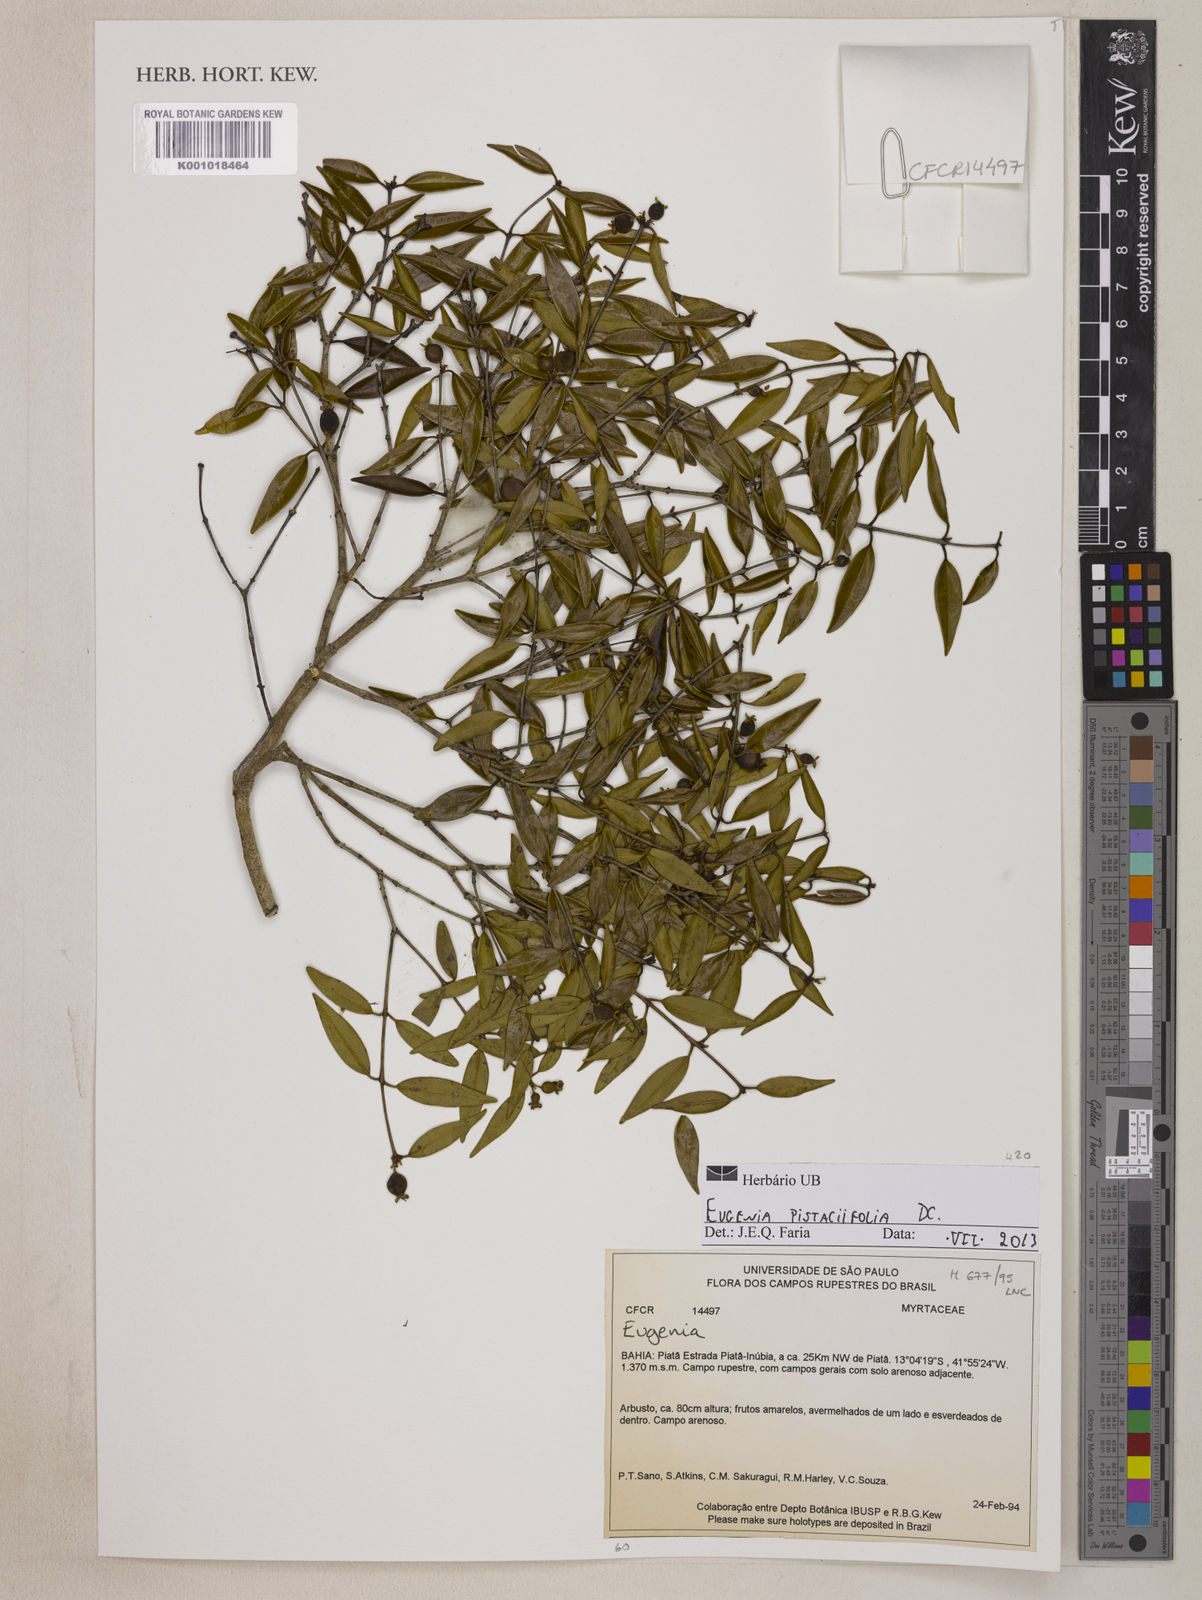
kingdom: Plantae
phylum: Tracheophyta
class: Magnoliopsida
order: Myrtales
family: Myrtaceae
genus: Eugenia
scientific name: Eugenia pistaciifolia
